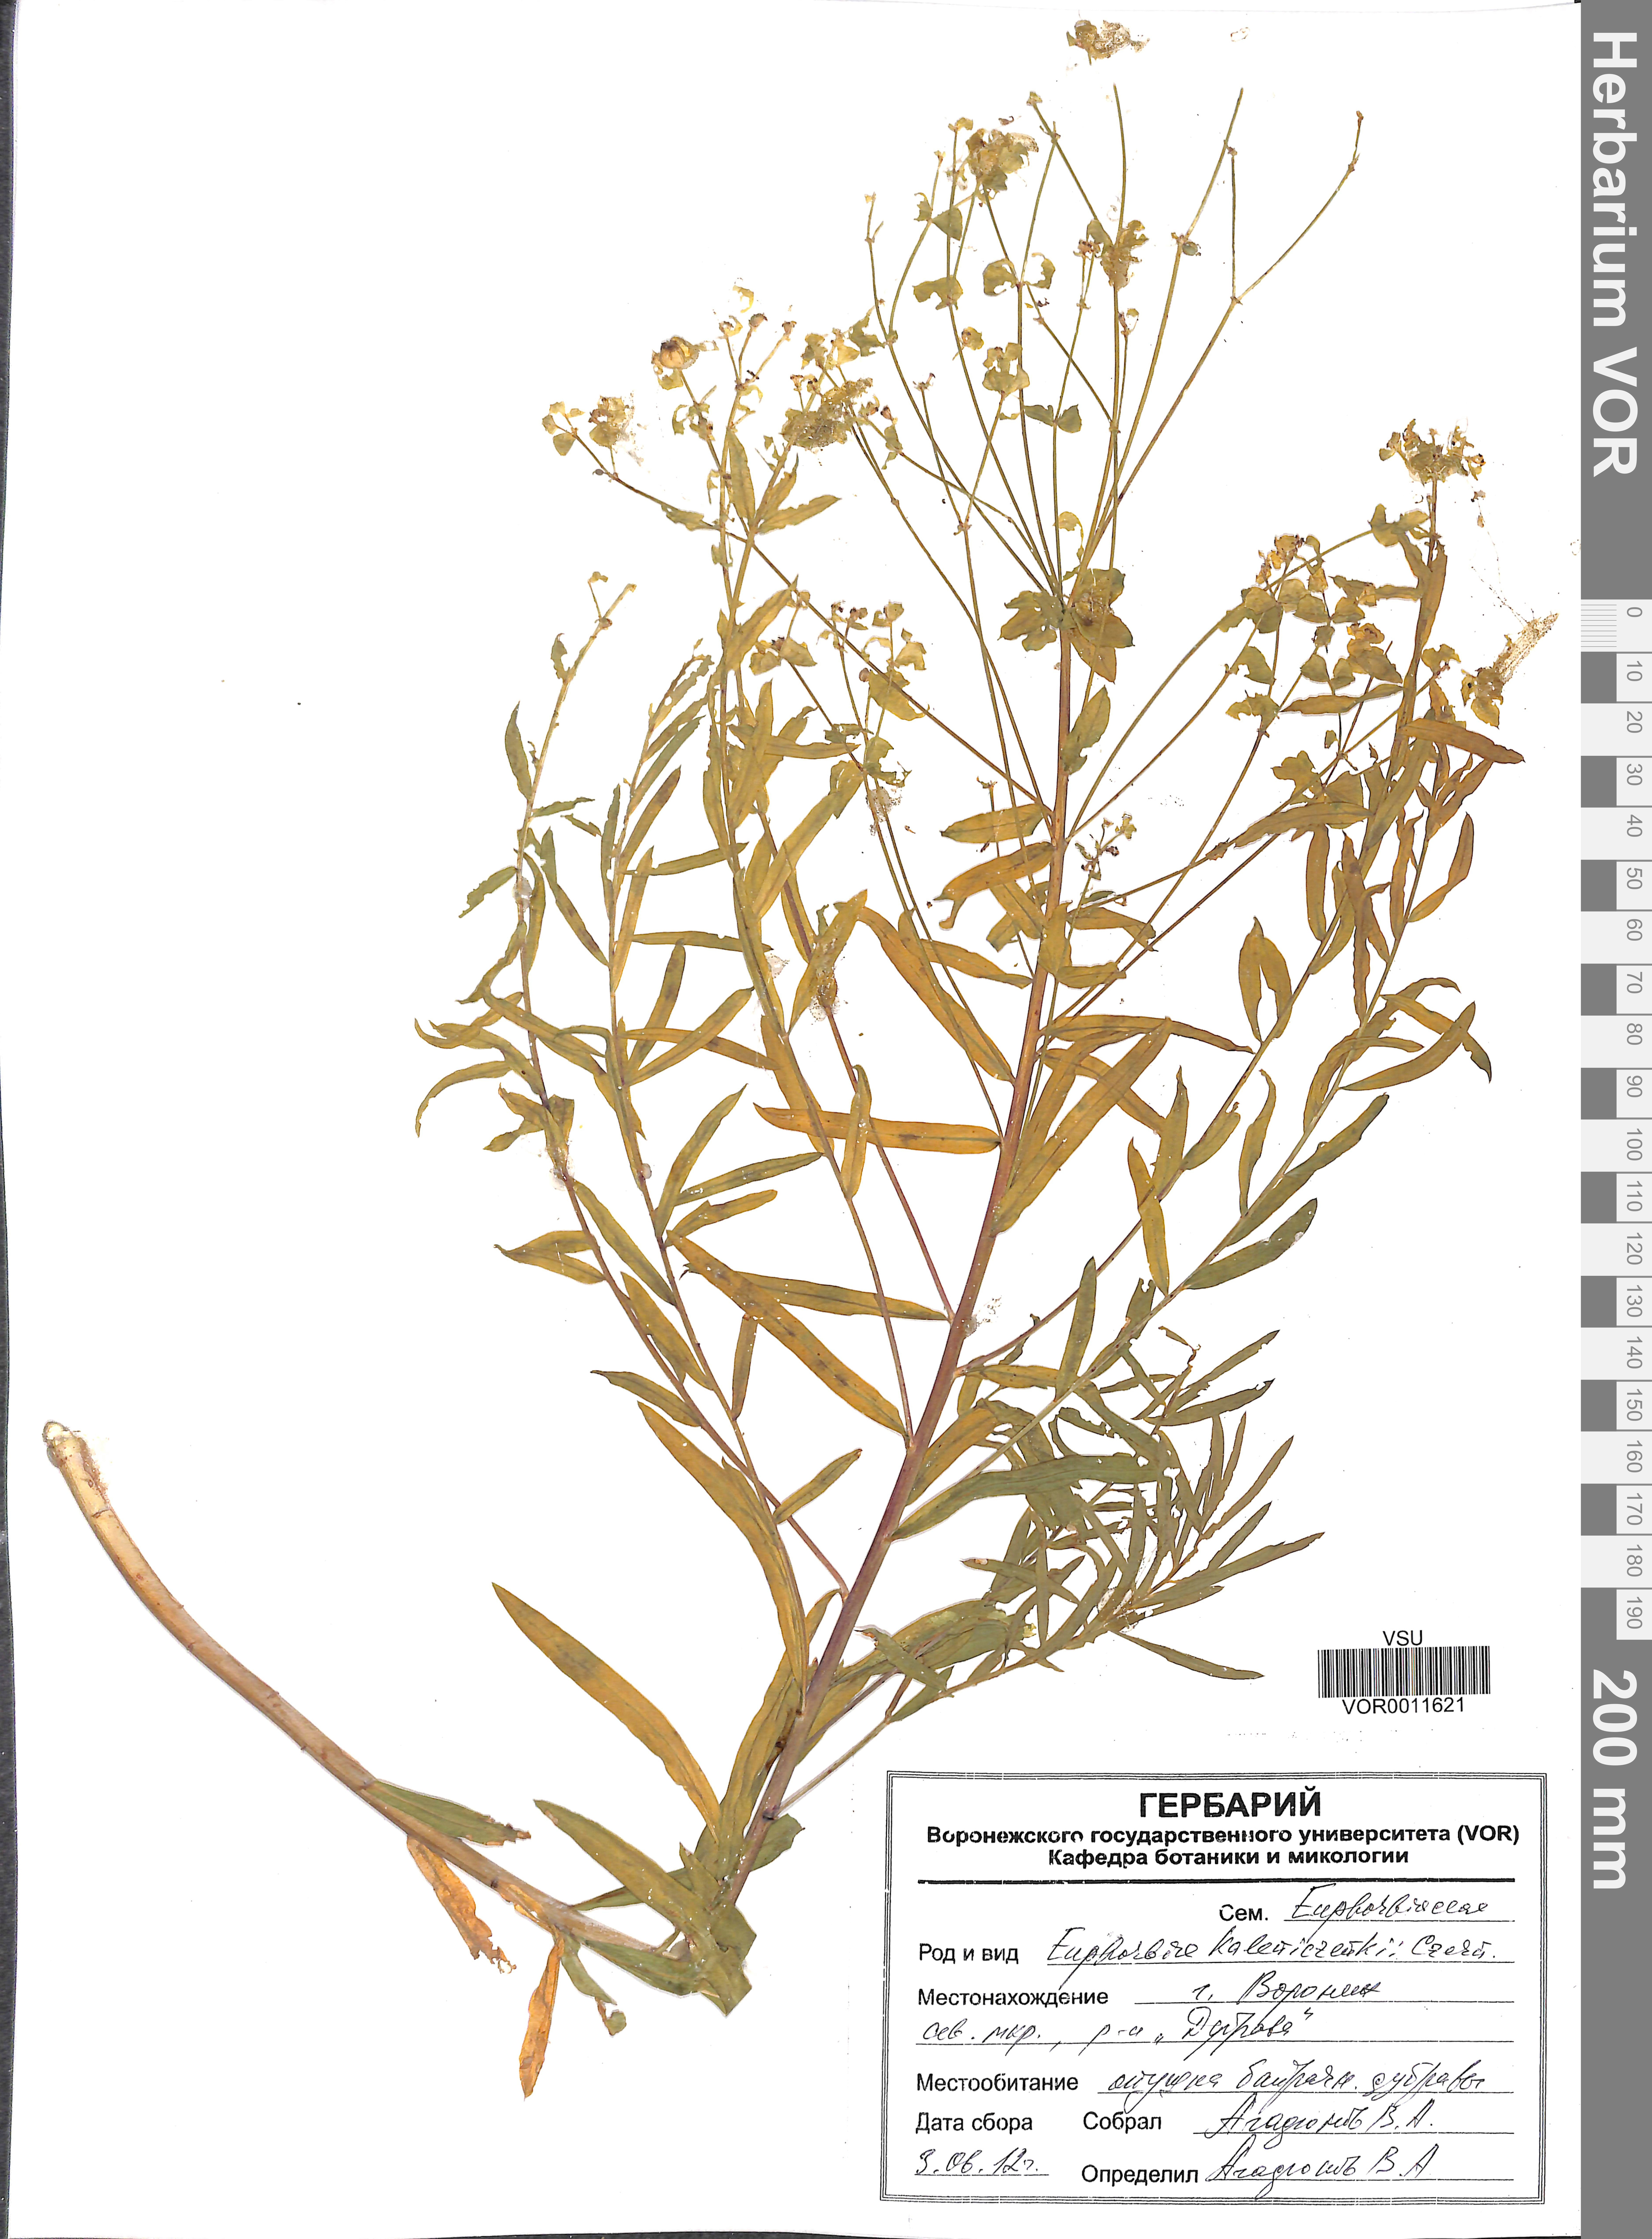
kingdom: Plantae
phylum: Tracheophyta
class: Magnoliopsida
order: Malpighiales
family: Euphorbiaceae
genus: Euphorbia
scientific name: Euphorbia esula
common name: Leafy spurge
